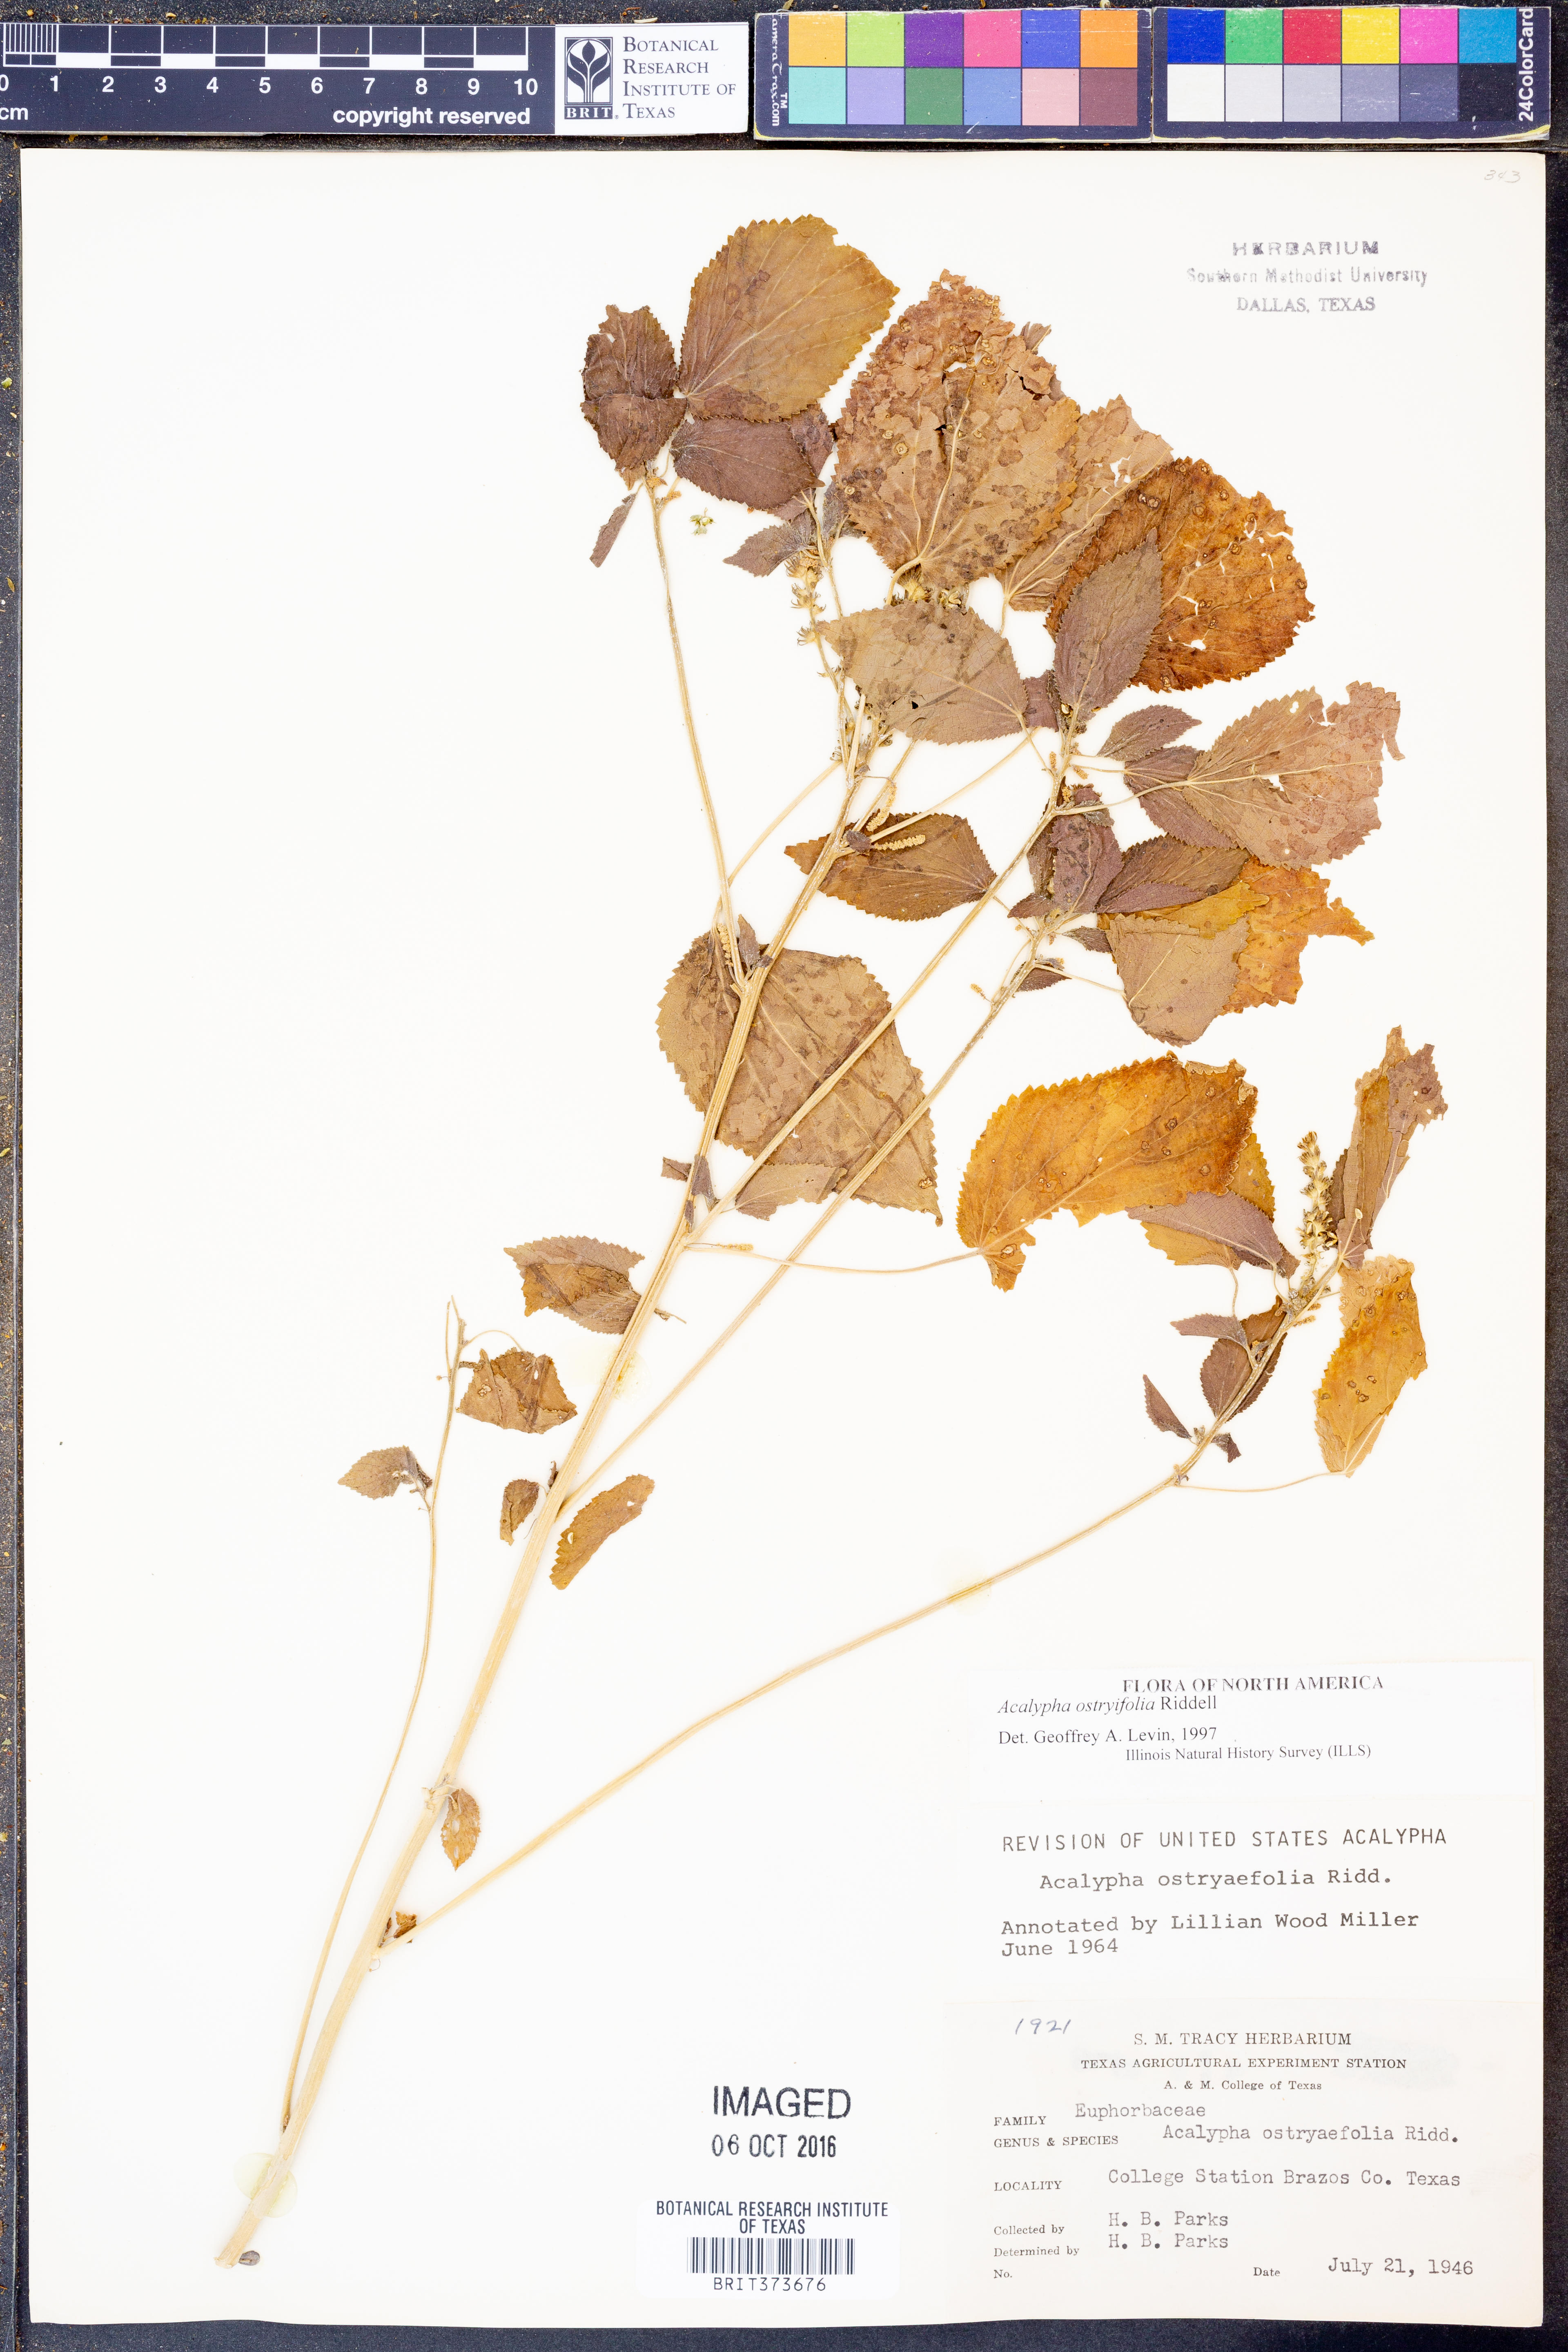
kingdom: Plantae
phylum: Tracheophyta
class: Magnoliopsida
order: Malpighiales
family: Euphorbiaceae
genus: Acalypha
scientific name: Acalypha persimilis
